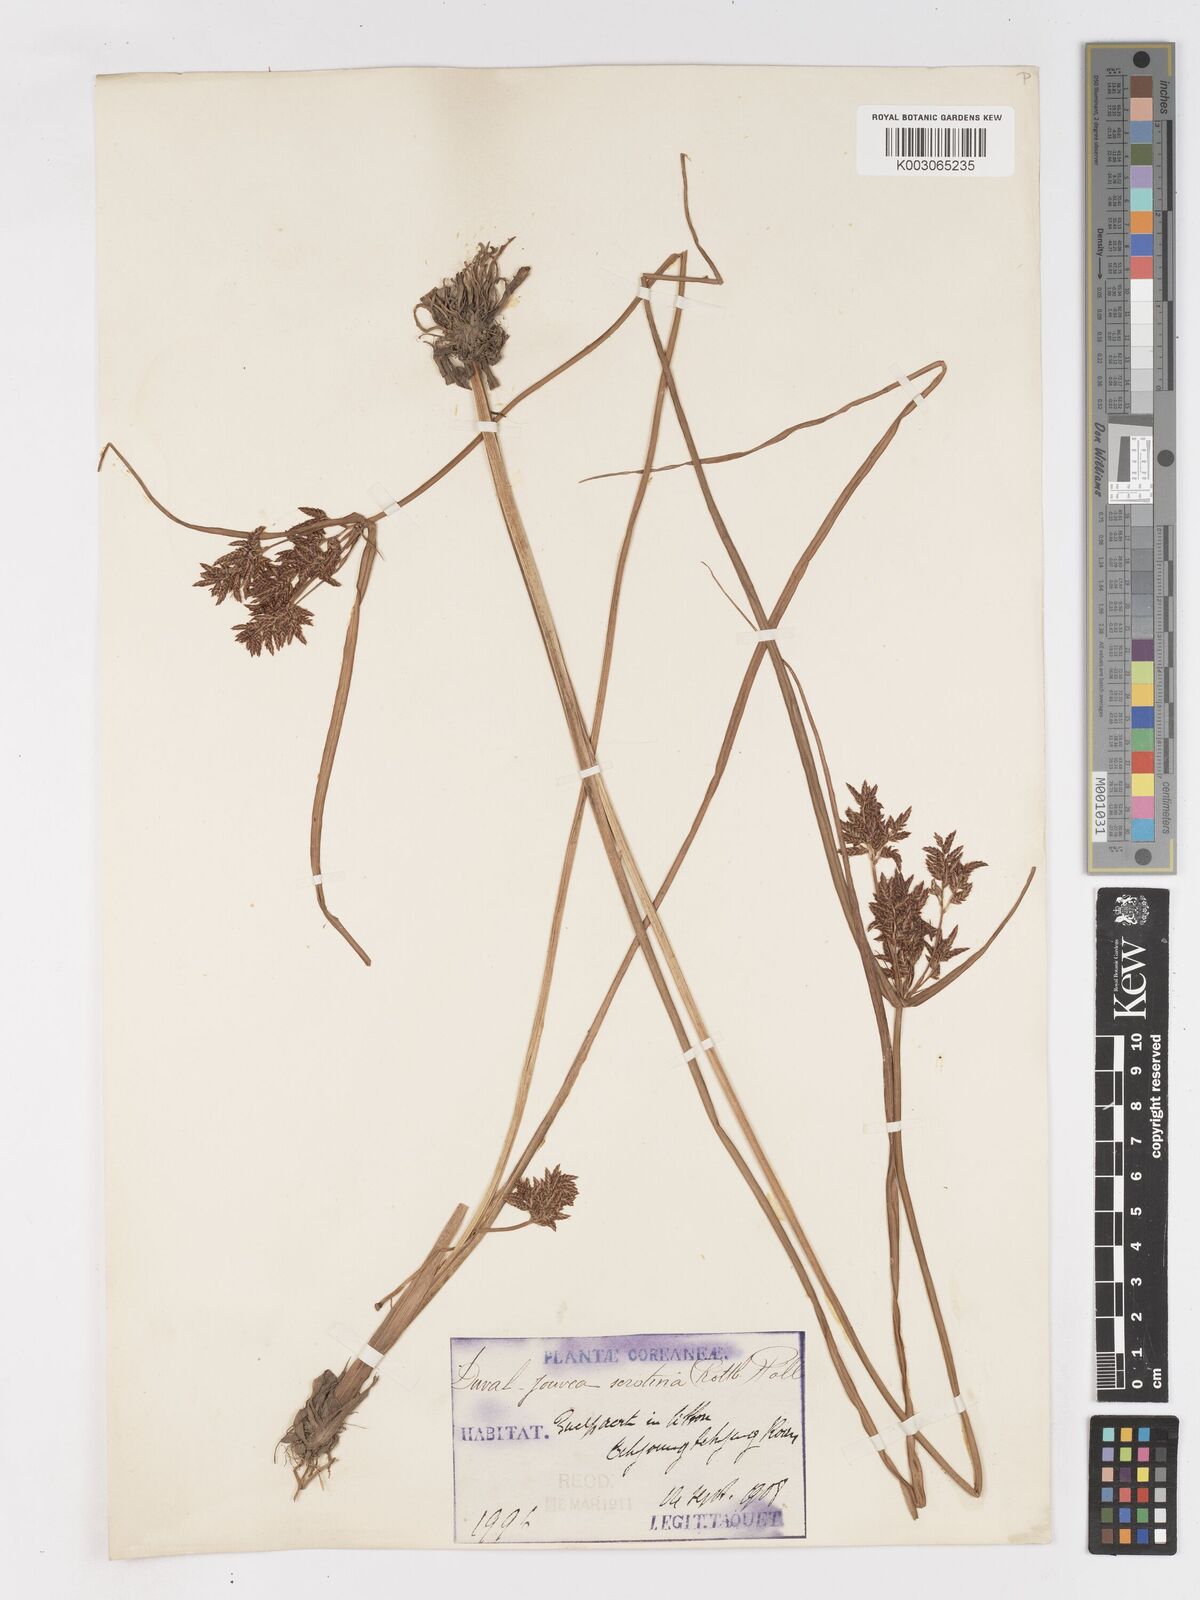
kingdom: Plantae
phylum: Tracheophyta
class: Liliopsida
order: Poales
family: Cyperaceae
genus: Cyperus
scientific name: Cyperus serotinus
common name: Tidalmarsh flatsedge
